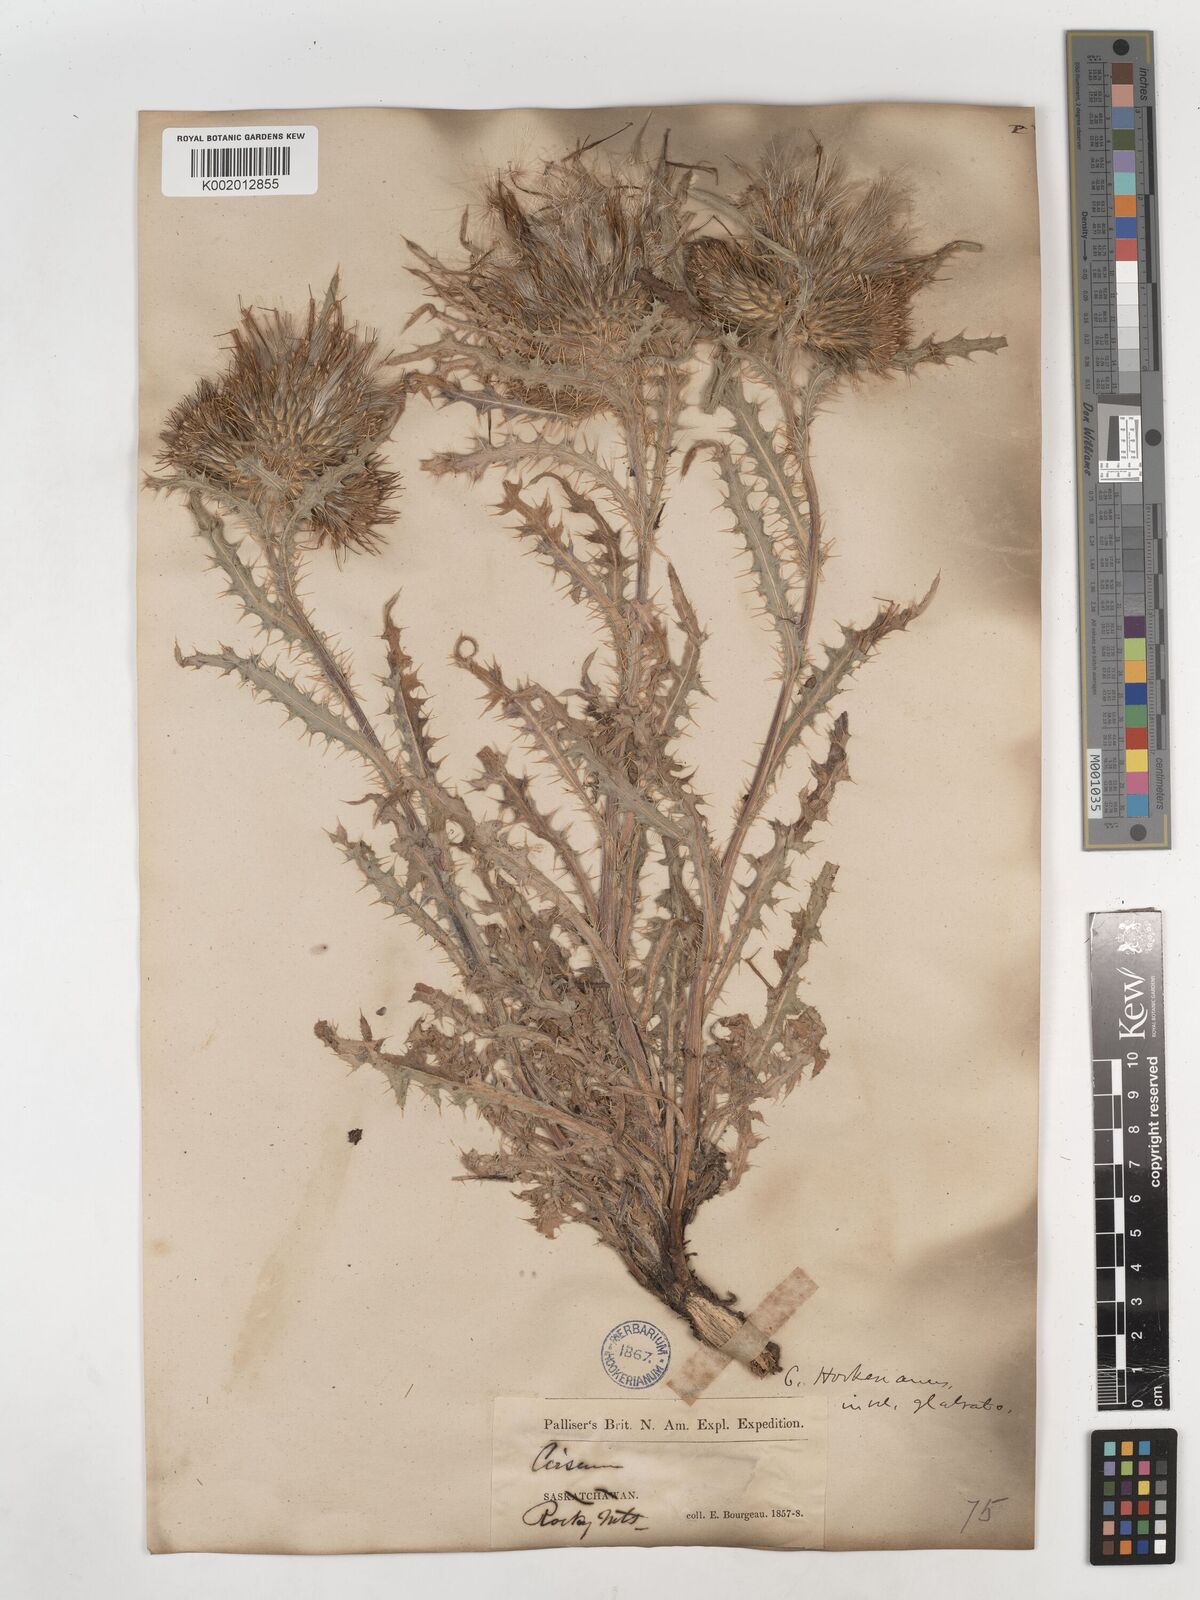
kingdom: Plantae
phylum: Tracheophyta
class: Magnoliopsida
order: Asterales
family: Asteraceae
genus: Cirsium
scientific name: Cirsium
